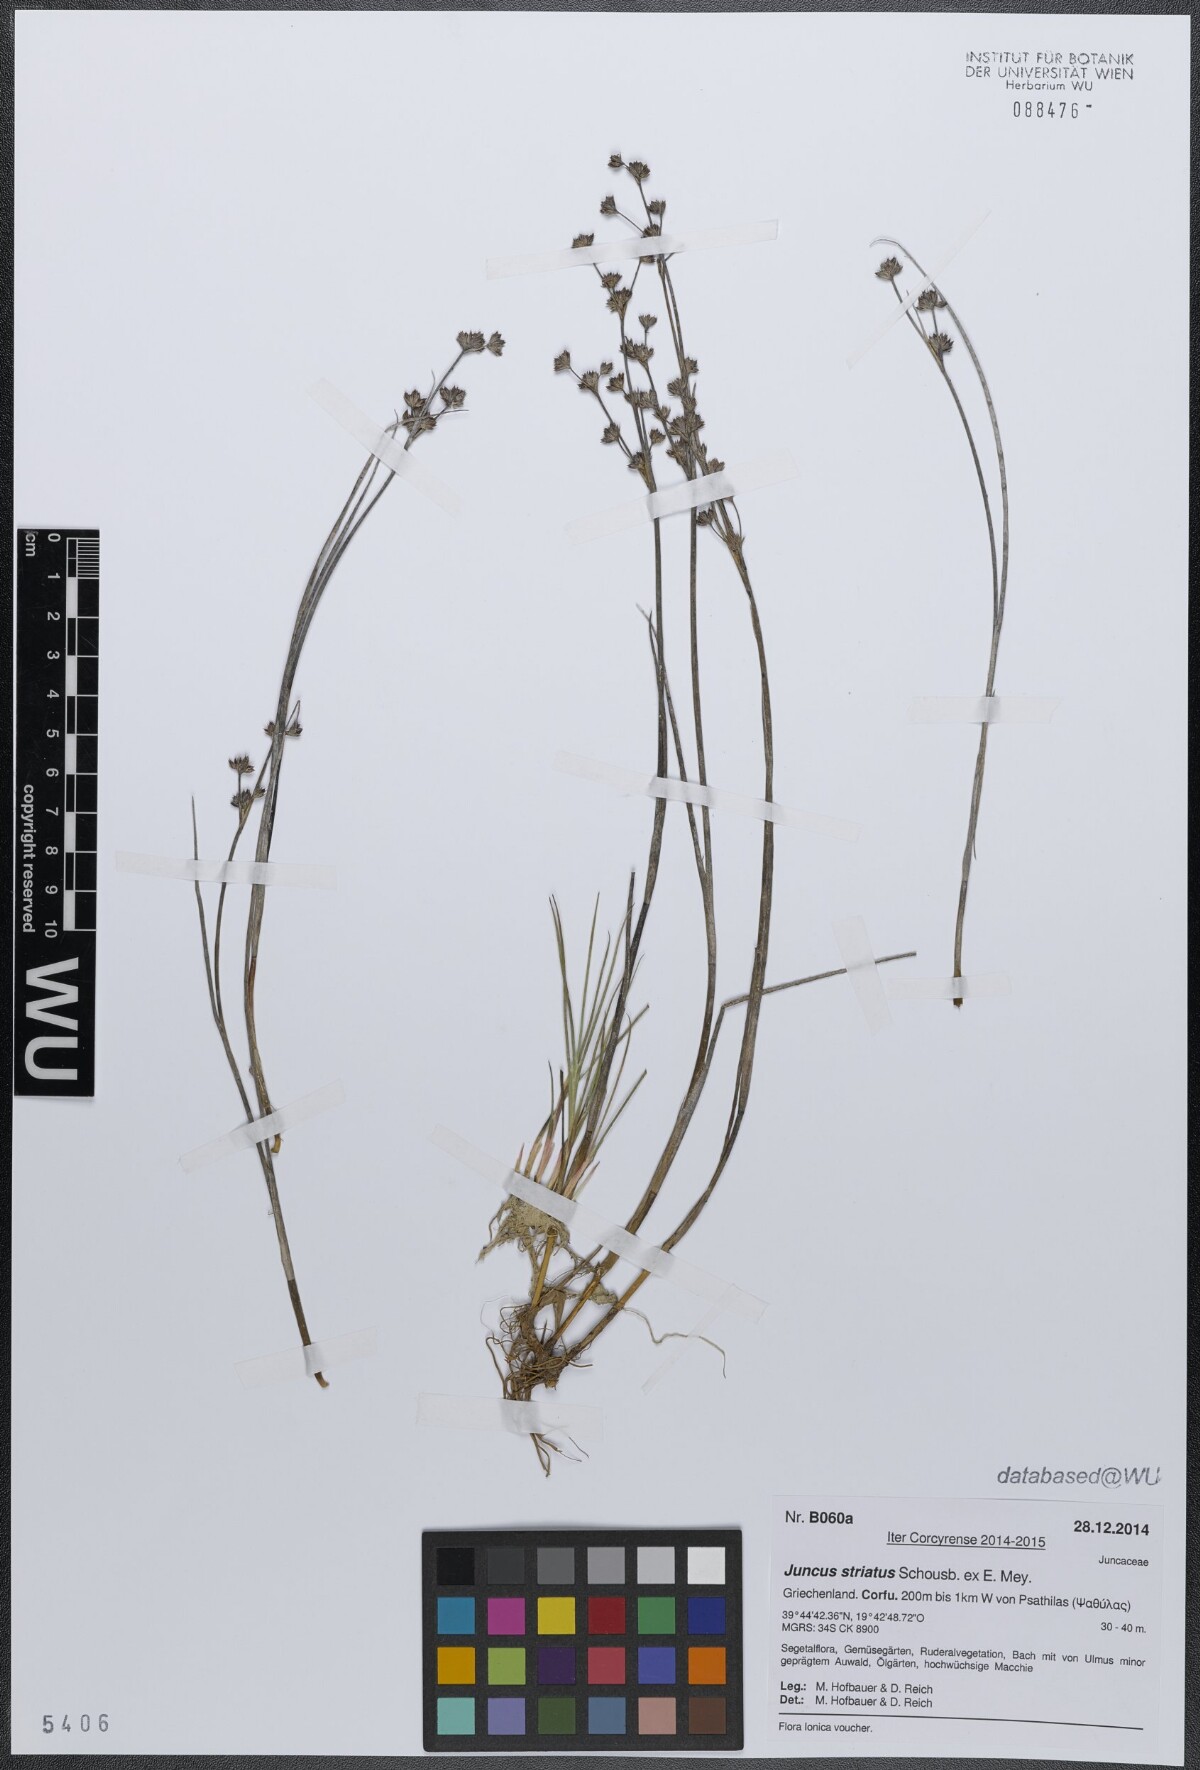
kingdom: Plantae
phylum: Tracheophyta
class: Liliopsida
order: Poales
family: Juncaceae
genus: Juncus
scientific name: Juncus striatus
